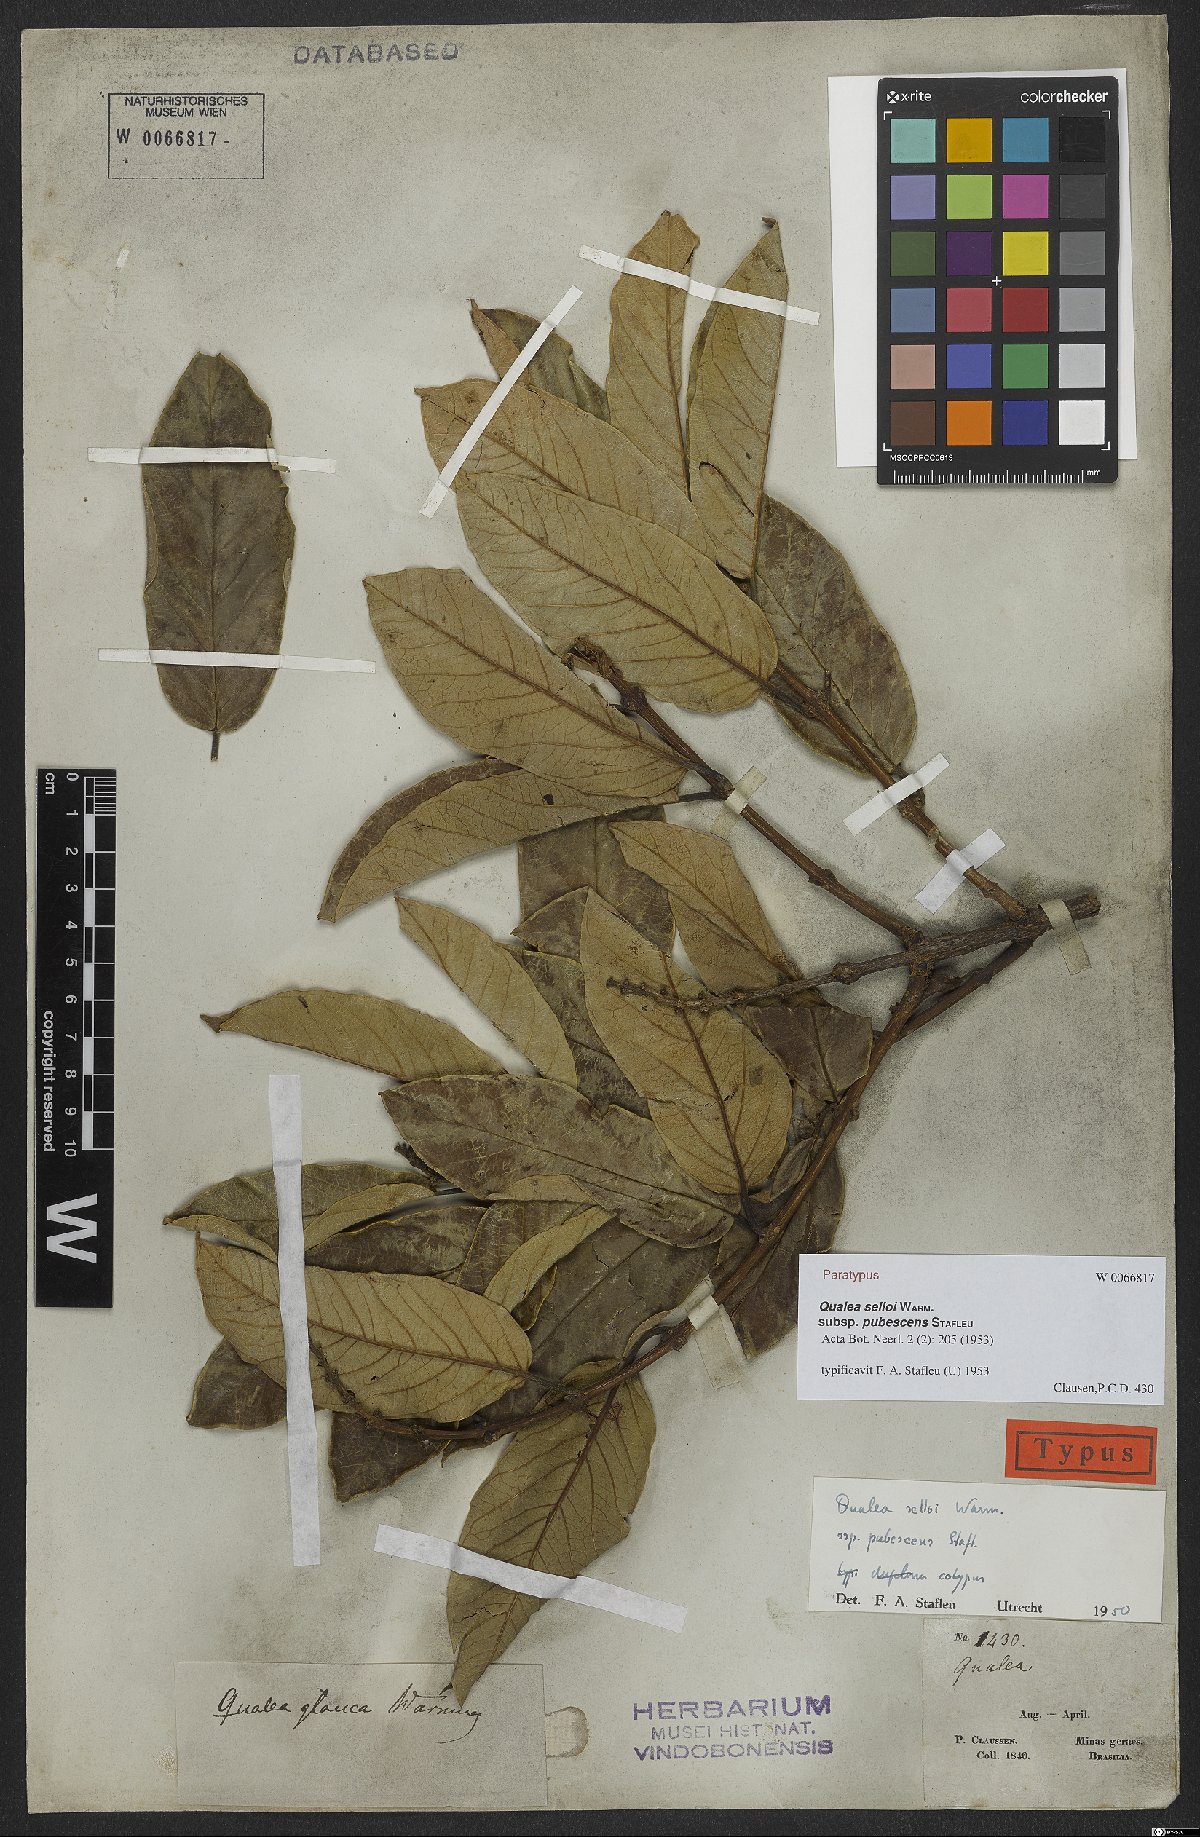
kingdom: Plantae
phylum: Tracheophyta
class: Magnoliopsida
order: Myrtales
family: Vochysiaceae
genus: Qualea
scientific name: Qualea selloi
